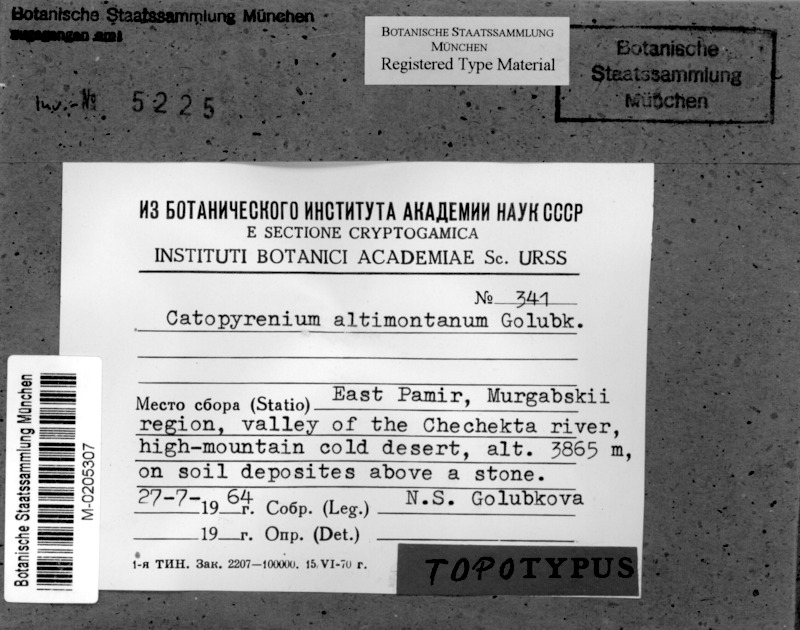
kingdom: Fungi
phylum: Ascomycota
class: Eurotiomycetes
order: Verrucariales
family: Verrucariaceae
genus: Catapyrenium
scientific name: Catapyrenium
